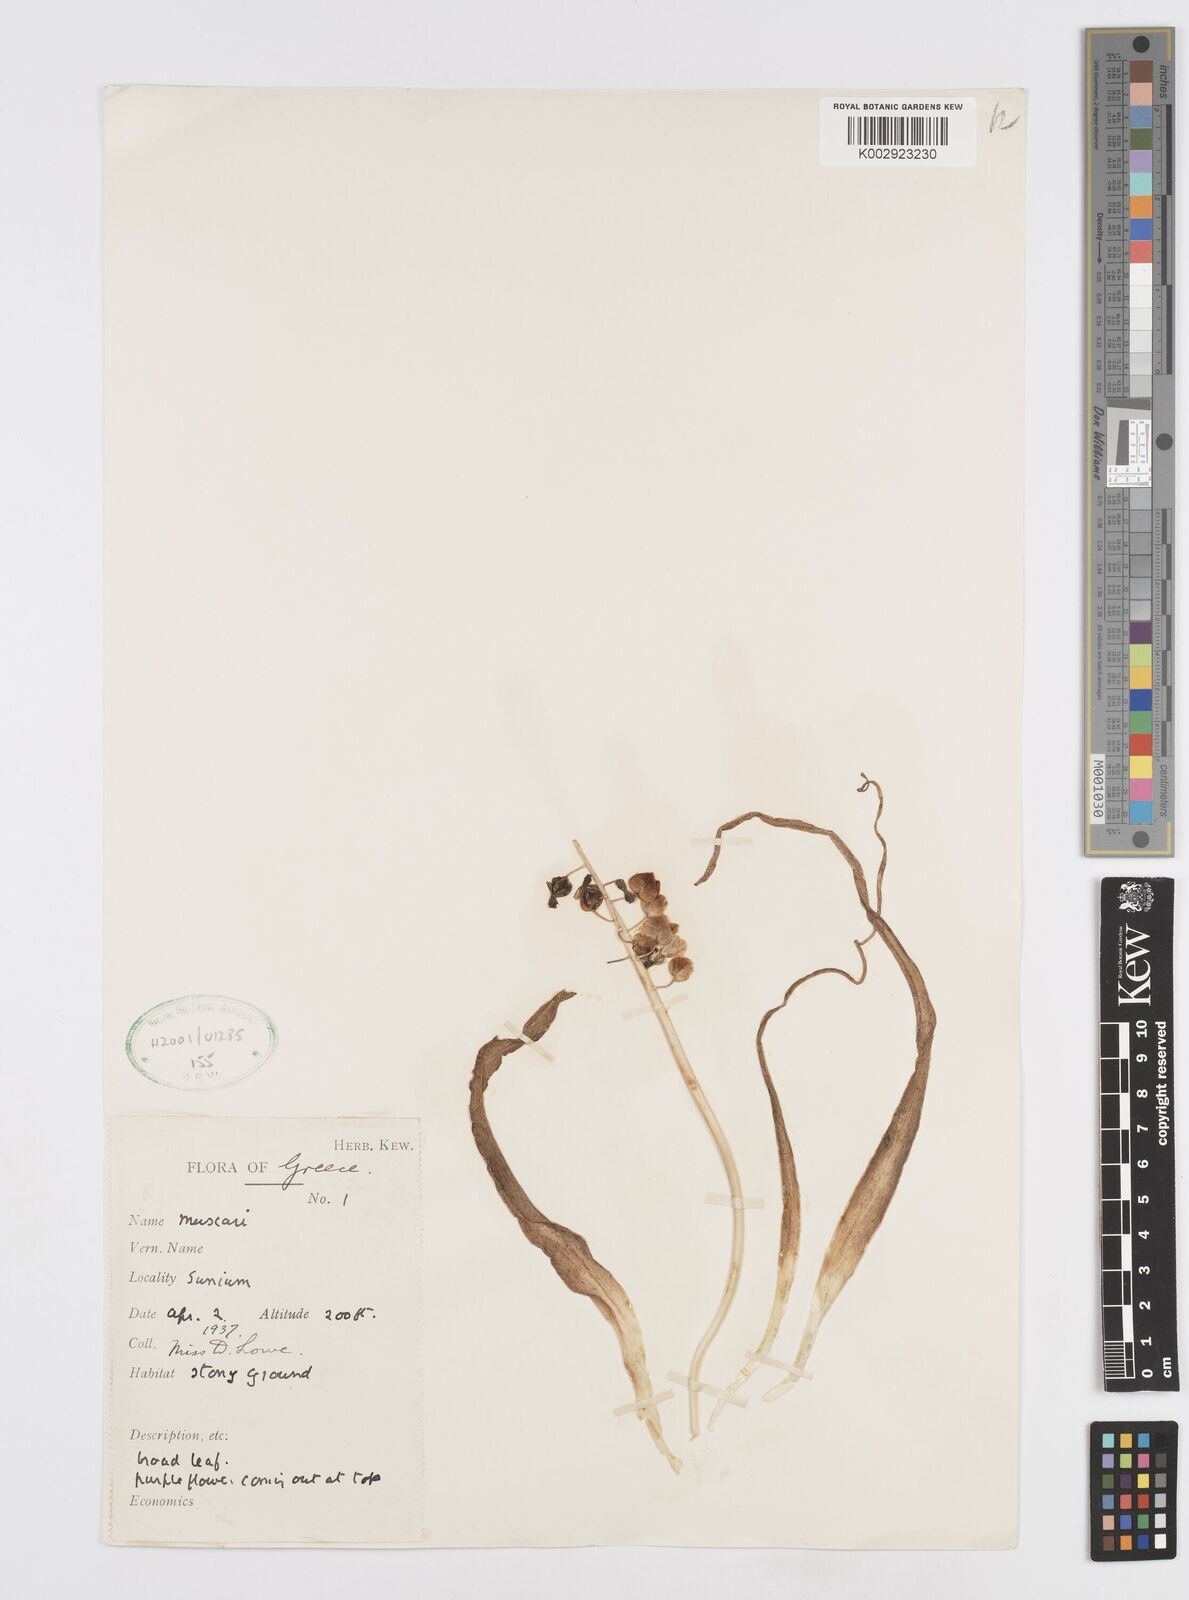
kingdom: Plantae
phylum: Tracheophyta
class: Liliopsida
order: Asparagales
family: Asparagaceae
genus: Muscari
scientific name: Muscari
